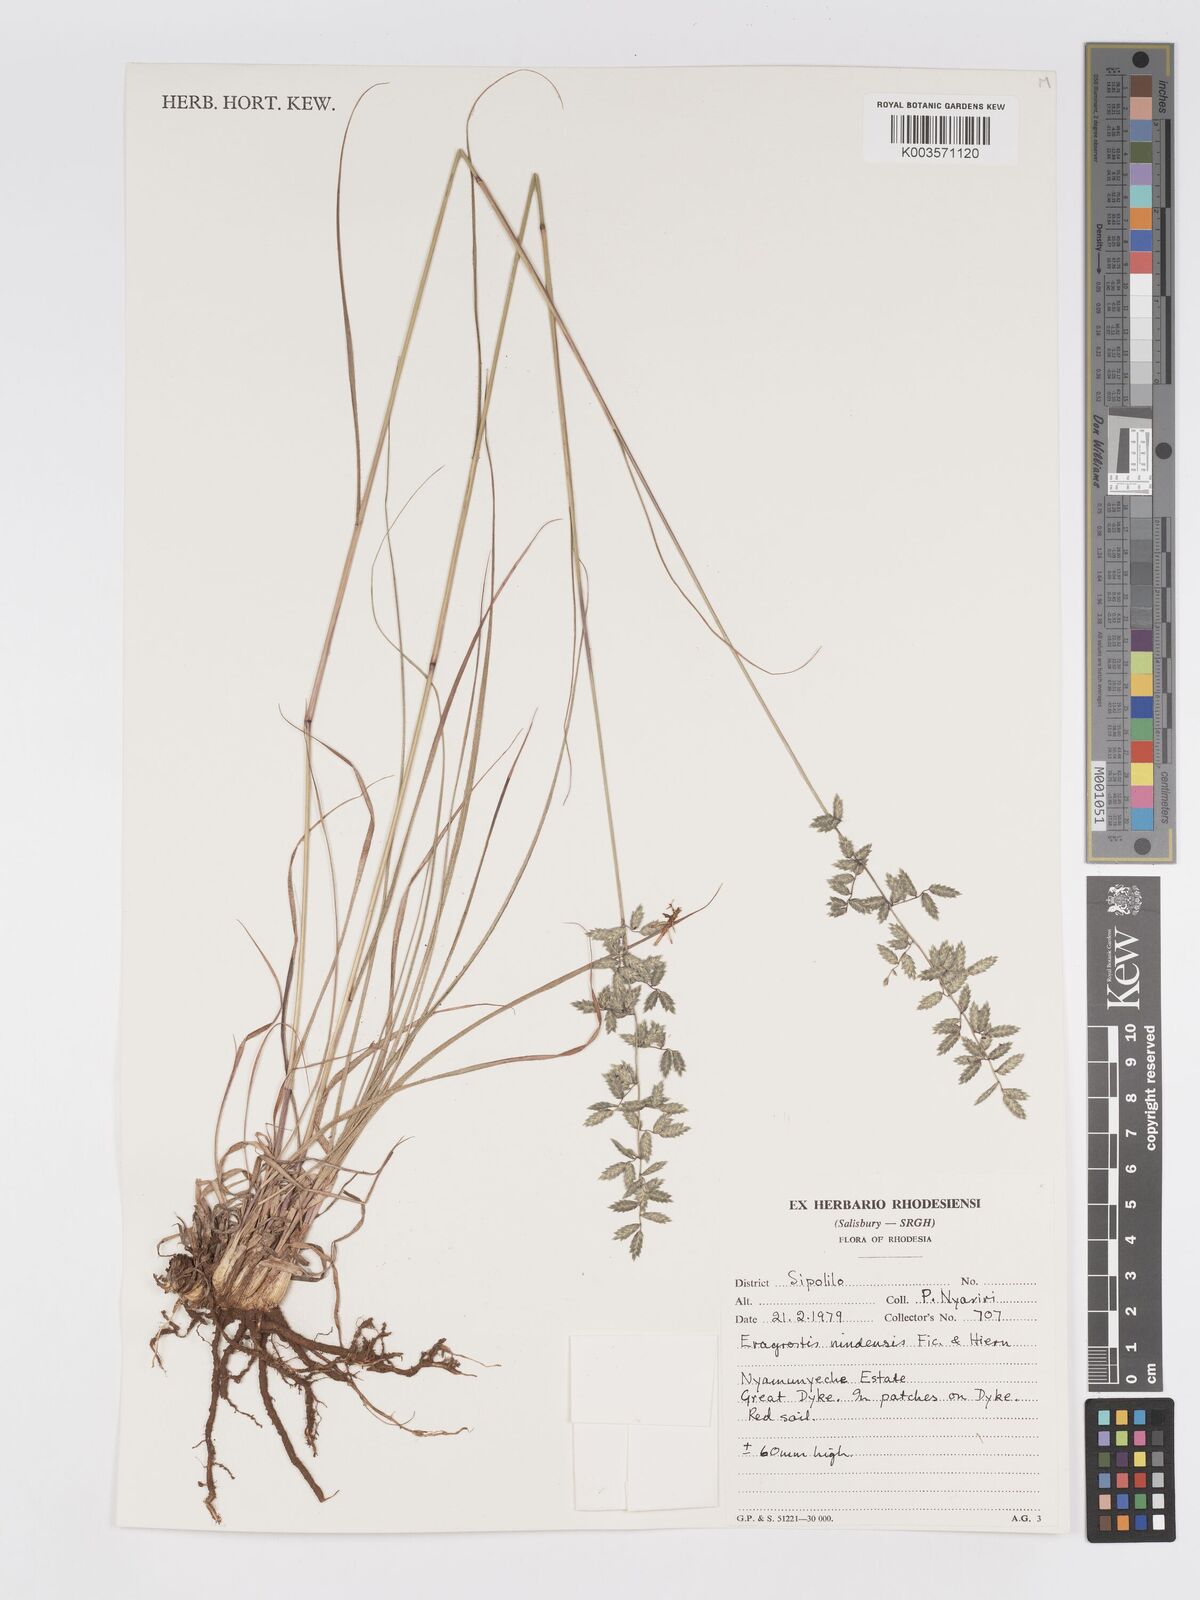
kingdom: Plantae
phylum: Tracheophyta
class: Liliopsida
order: Poales
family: Poaceae
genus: Eragrostis
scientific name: Eragrostis nindensis
